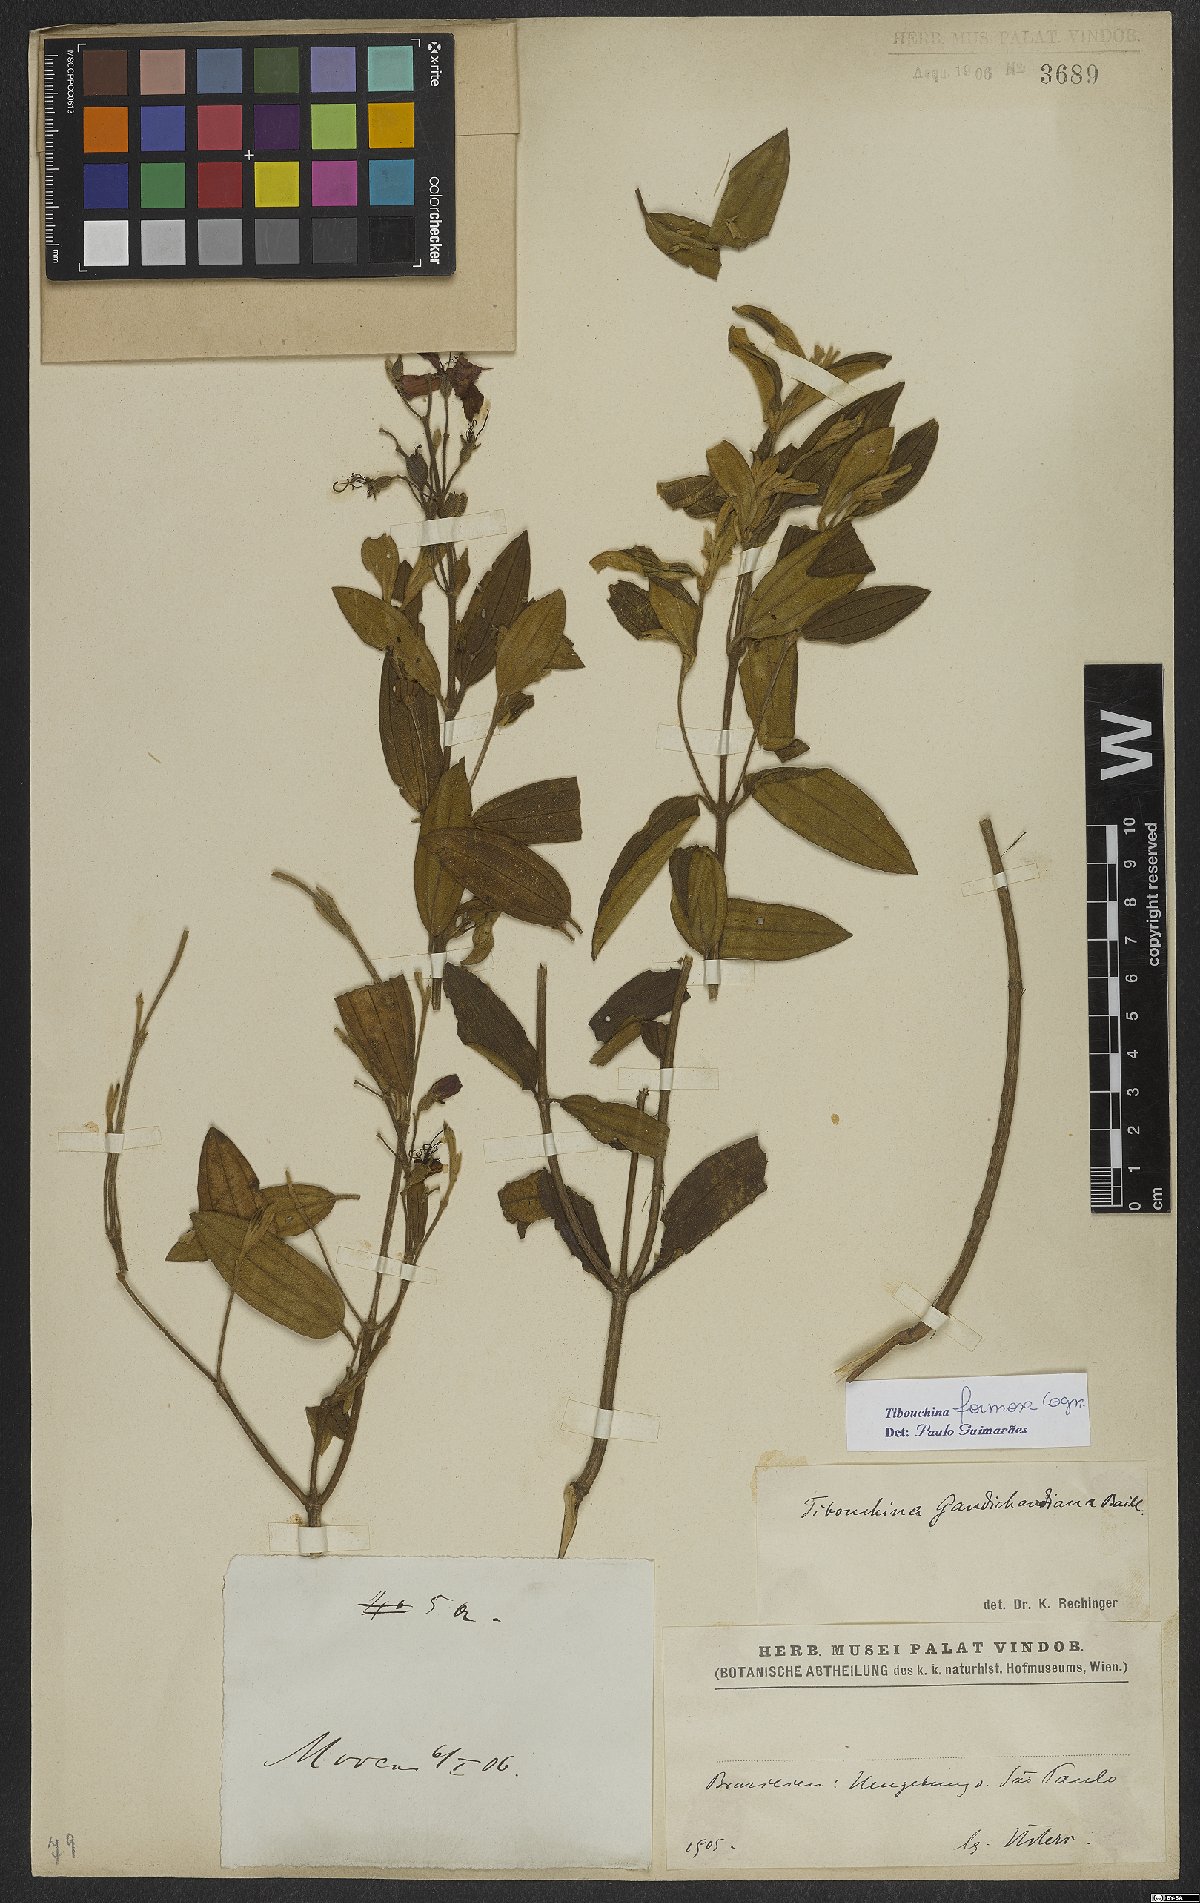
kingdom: Plantae
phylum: Tracheophyta
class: Magnoliopsida
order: Myrtales
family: Melastomataceae
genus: Pleroma
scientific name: Pleroma formosum
